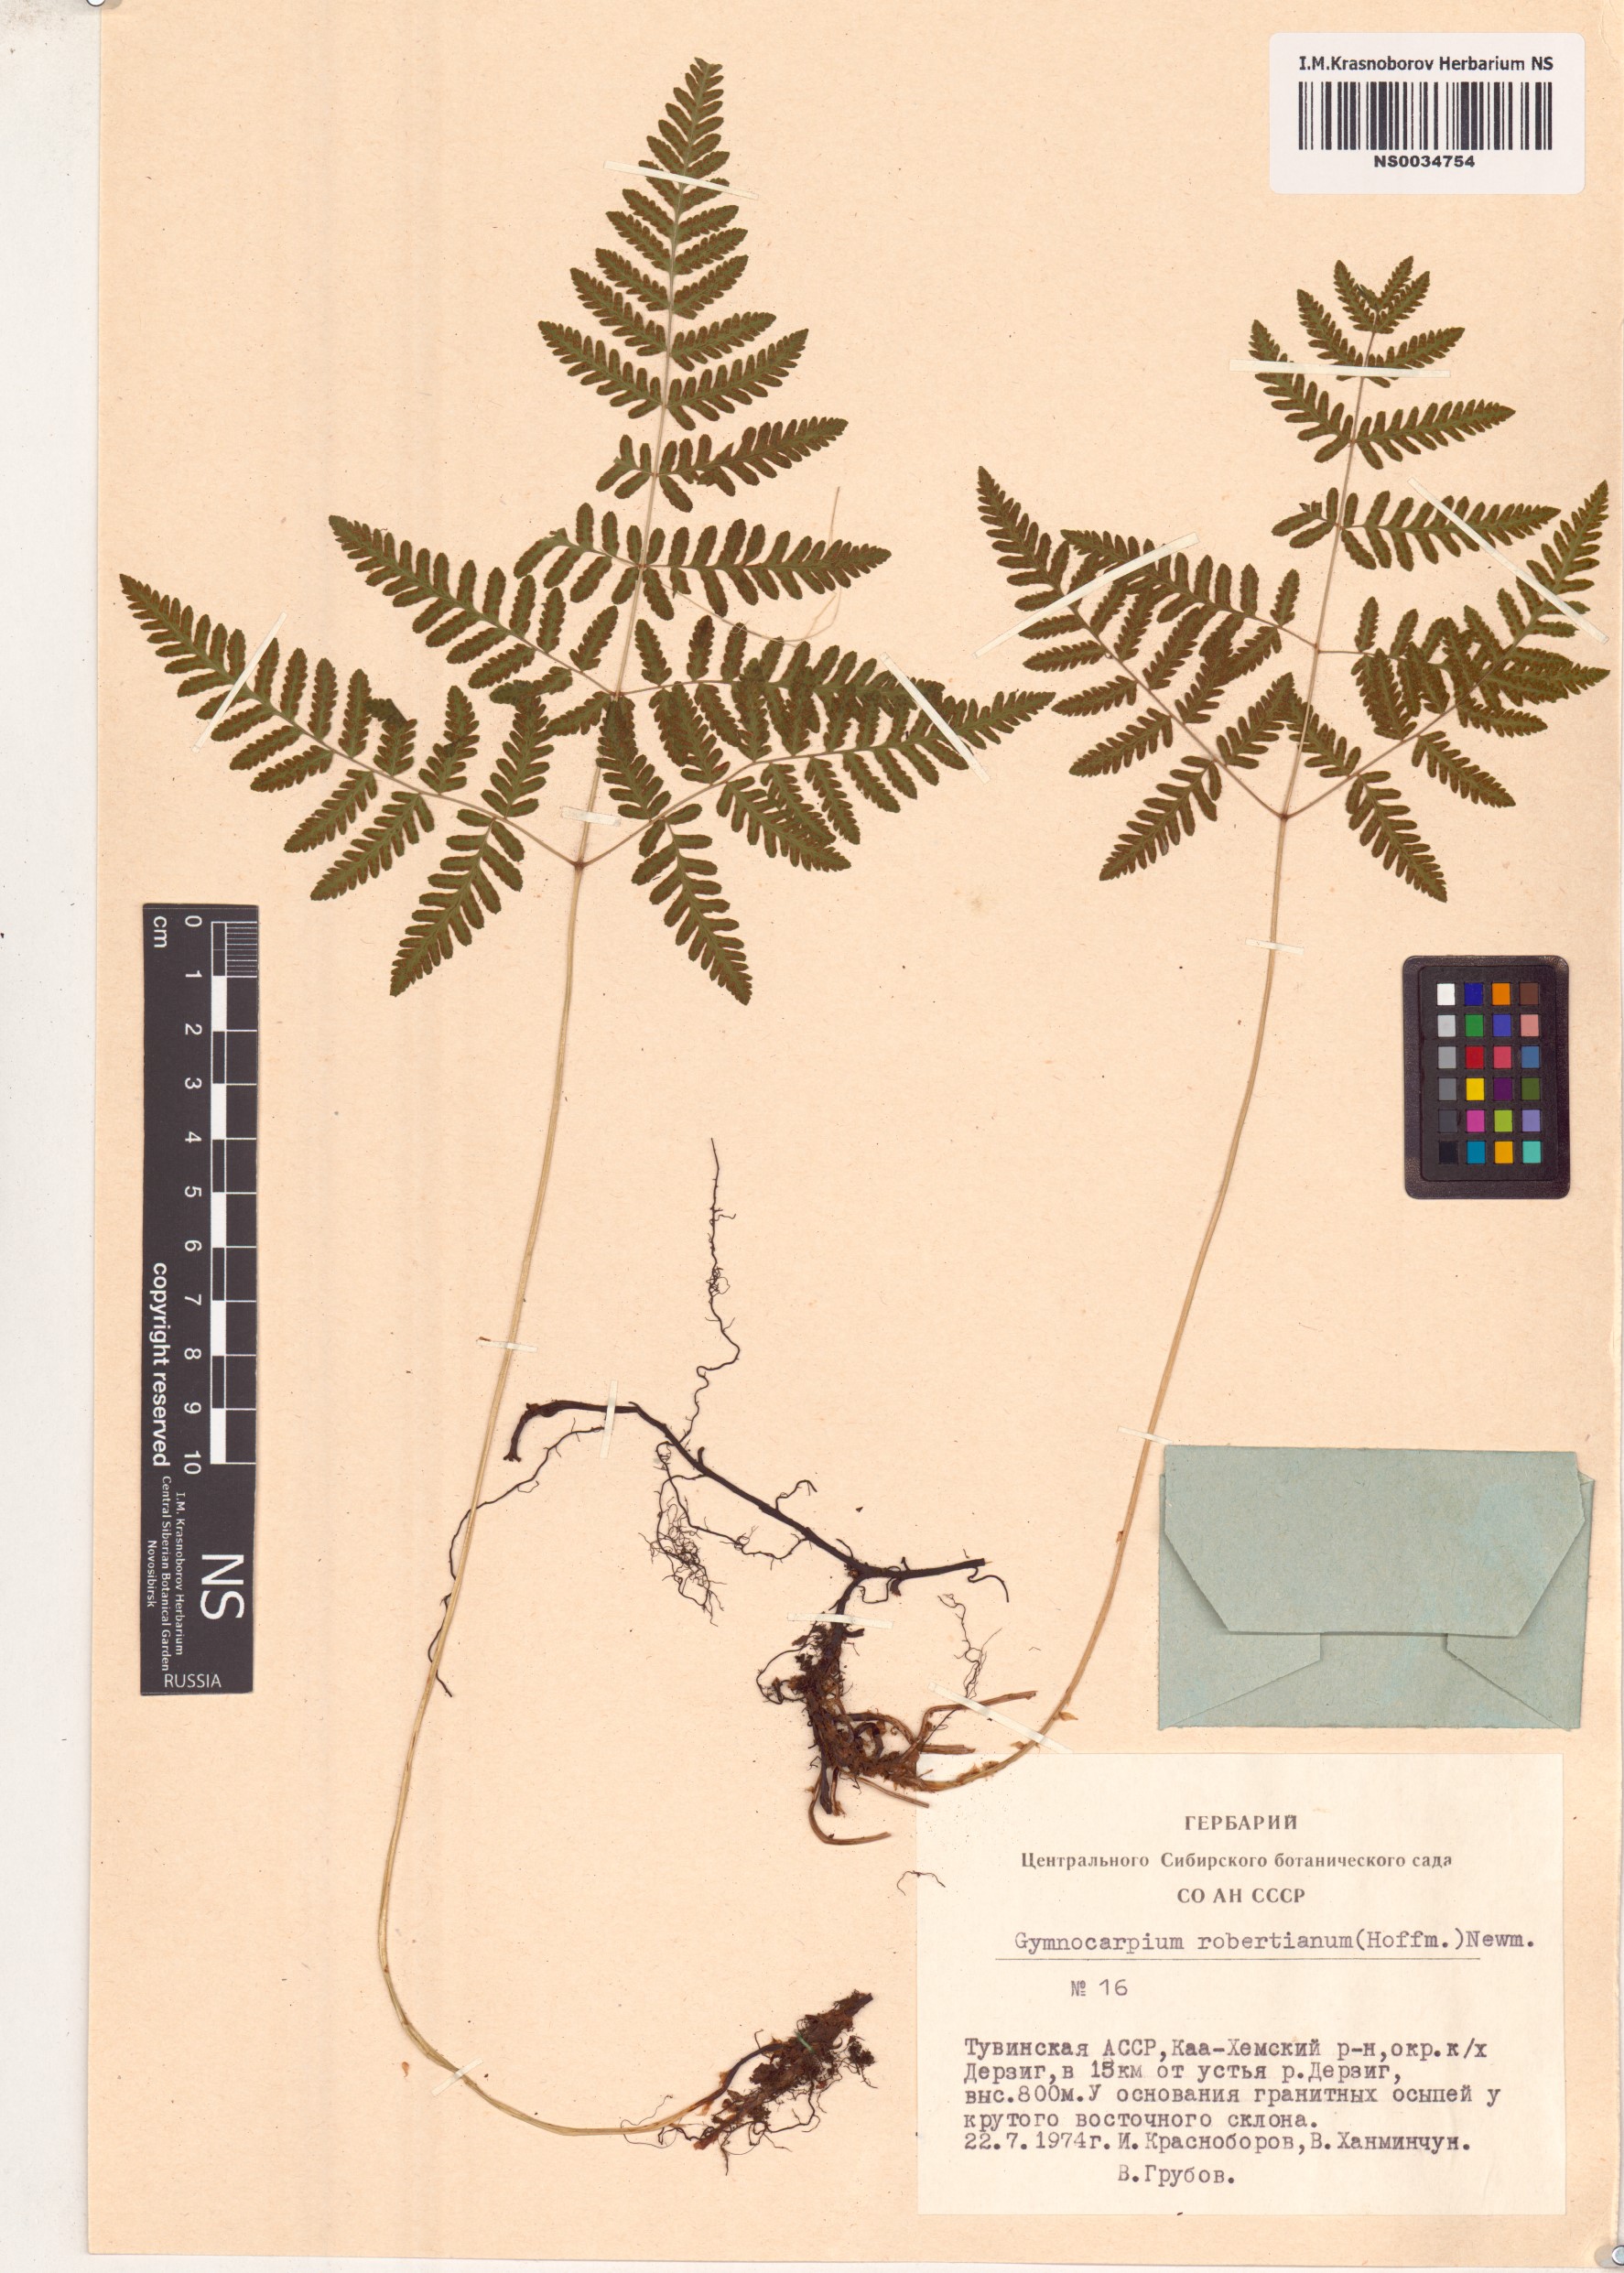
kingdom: Plantae
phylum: Tracheophyta
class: Polypodiopsida
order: Polypodiales
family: Cystopteridaceae
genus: Gymnocarpium
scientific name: Gymnocarpium robertianum
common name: Limestone fern
